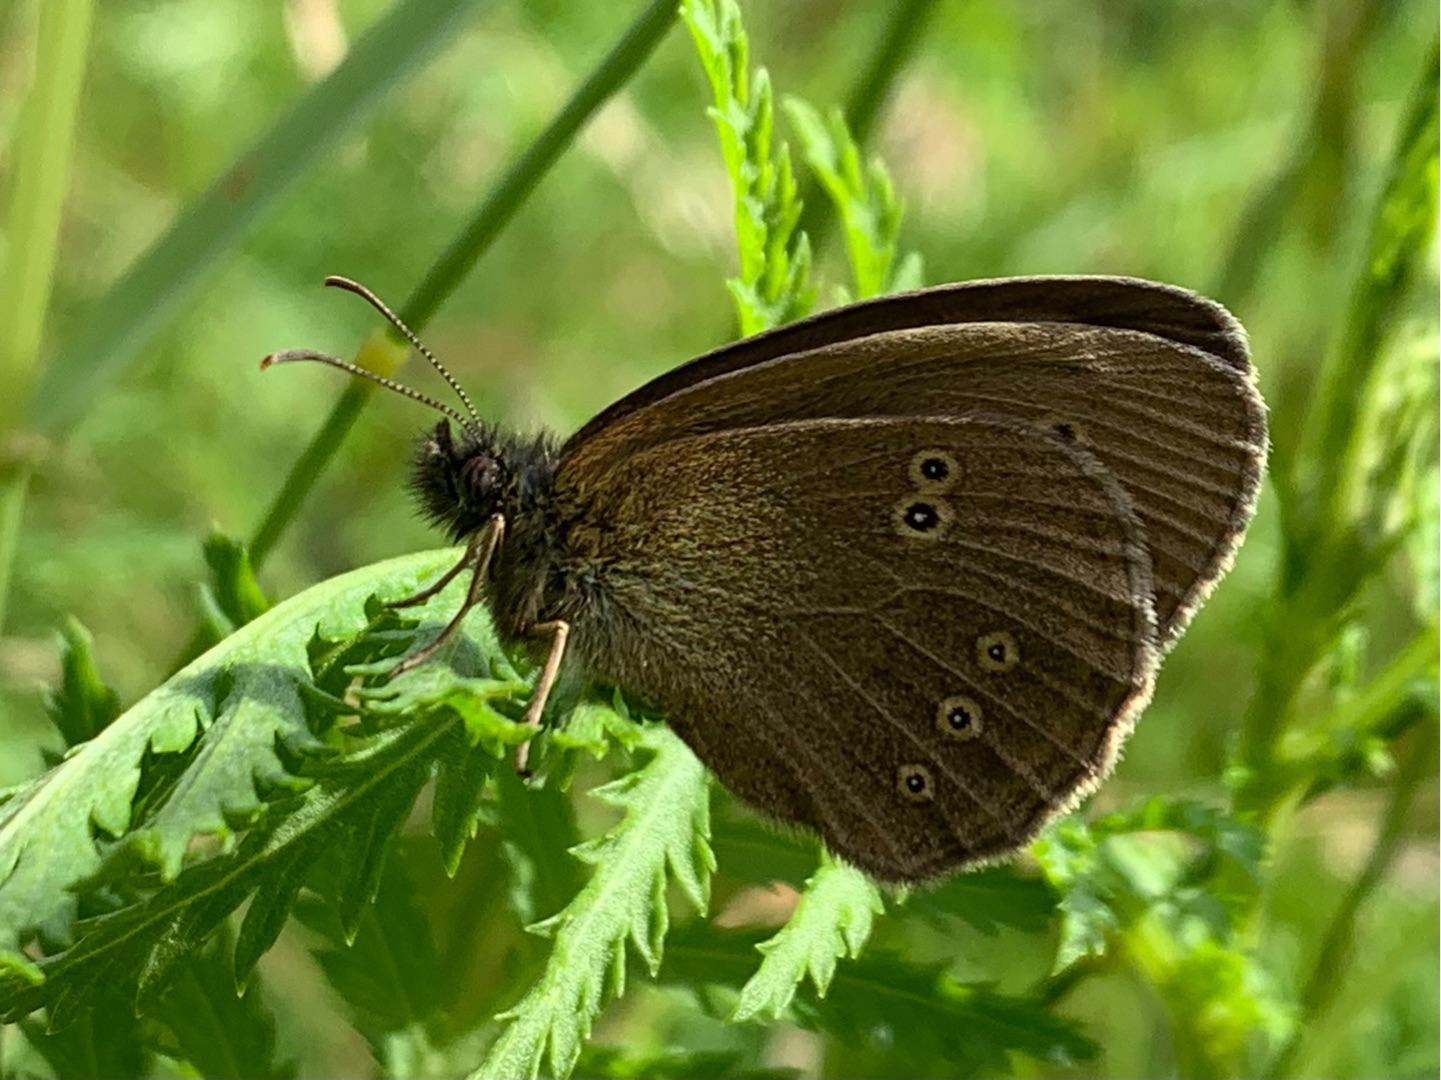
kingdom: Animalia
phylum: Arthropoda
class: Insecta
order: Lepidoptera
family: Nymphalidae
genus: Aphantopus
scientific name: Aphantopus hyperantus
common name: Engrandøje
